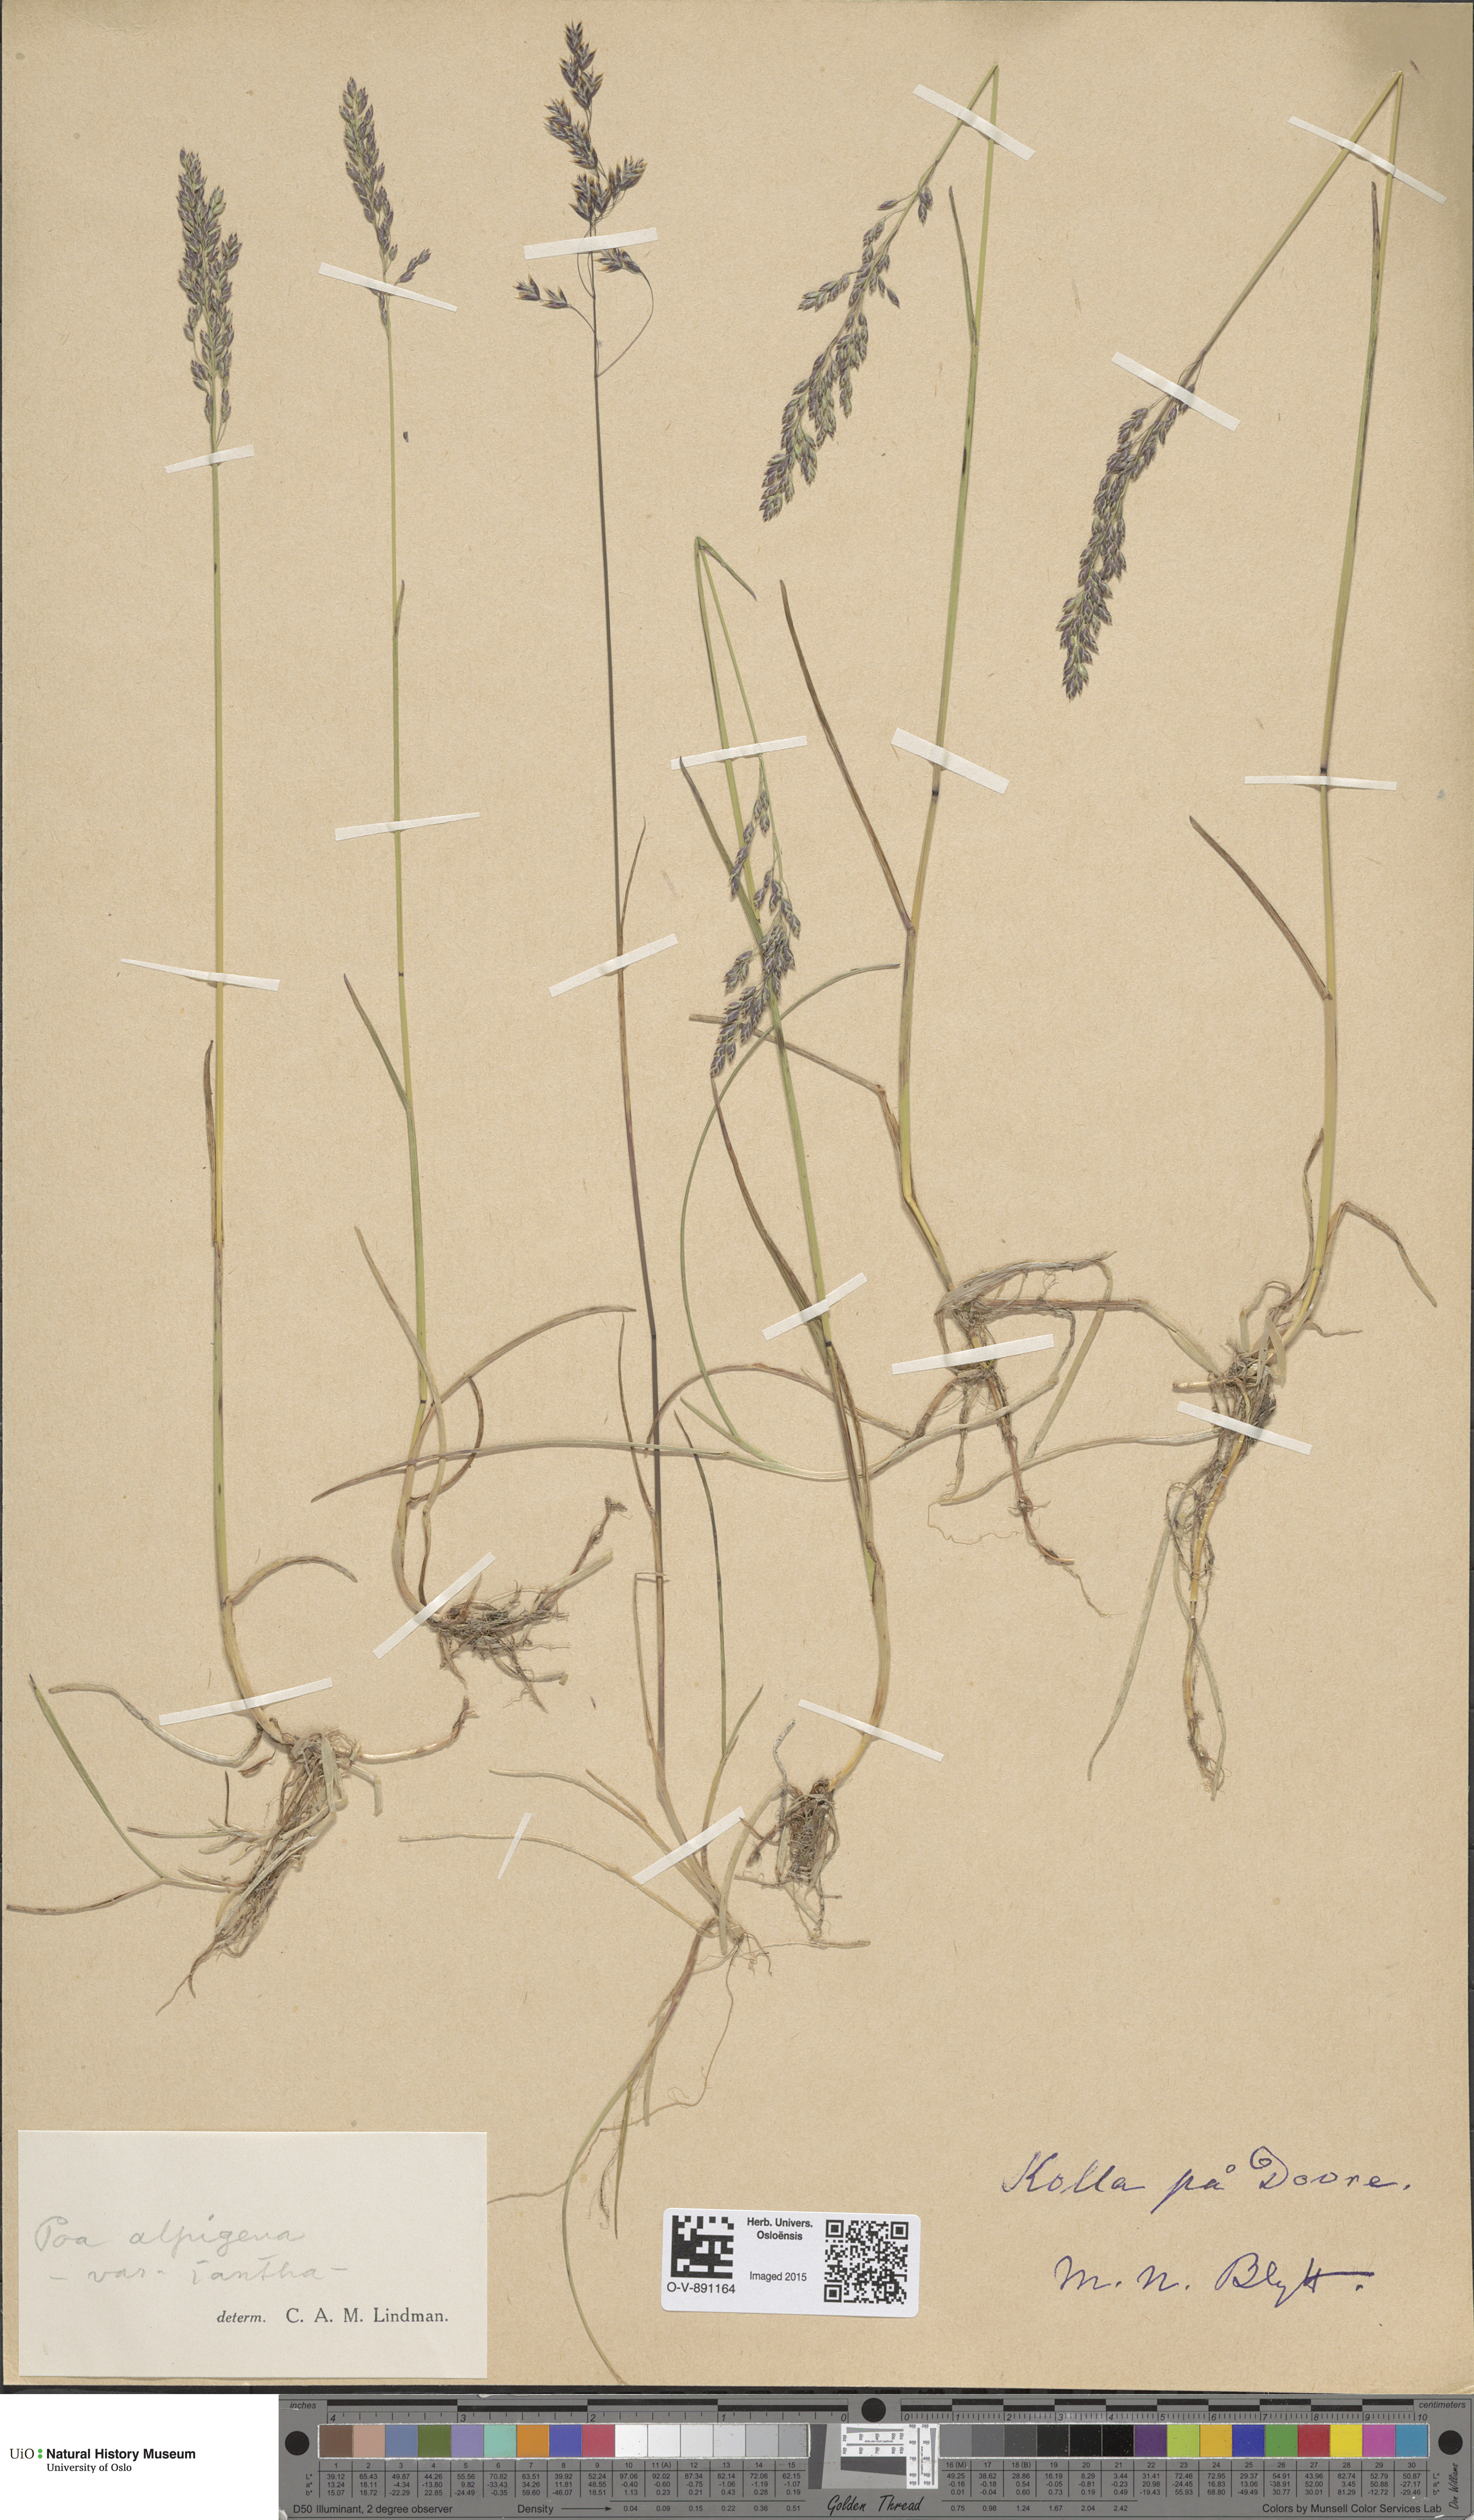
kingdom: Plantae
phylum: Tracheophyta
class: Liliopsida
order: Poales
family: Poaceae
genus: Poa
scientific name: Poa alpigena
